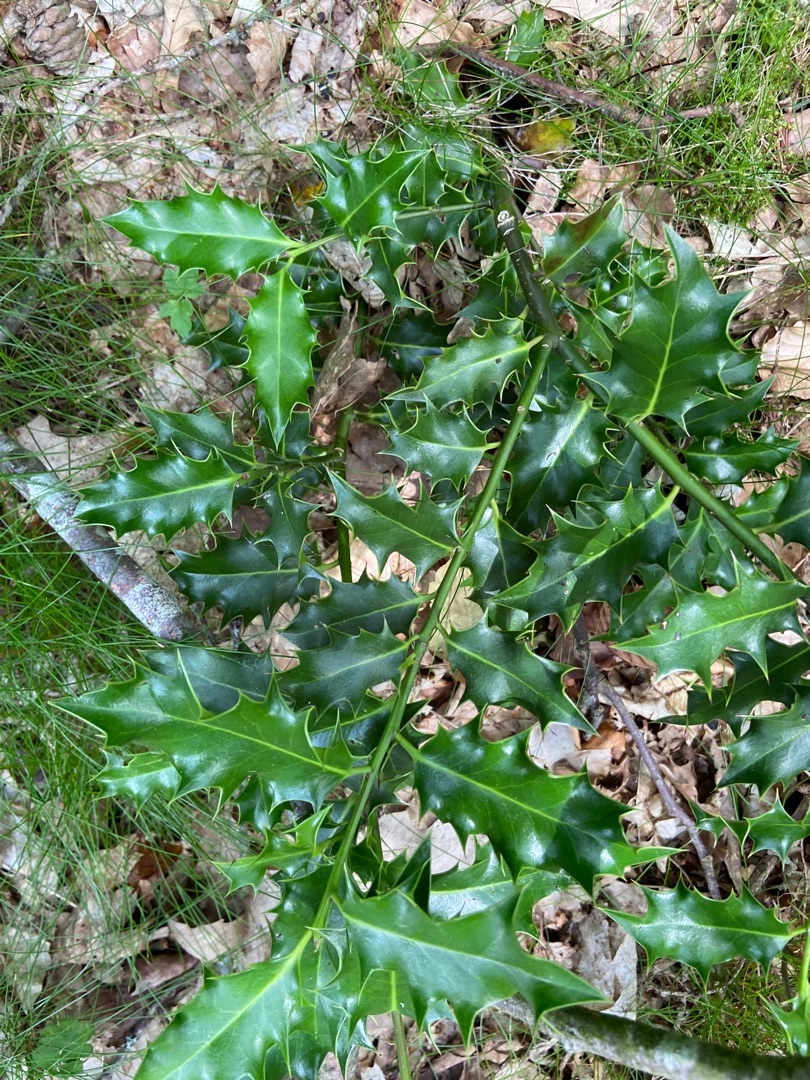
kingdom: Plantae
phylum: Tracheophyta
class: Magnoliopsida
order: Aquifoliales
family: Aquifoliaceae
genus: Ilex
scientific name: Ilex aquifolium
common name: Kristtorn
